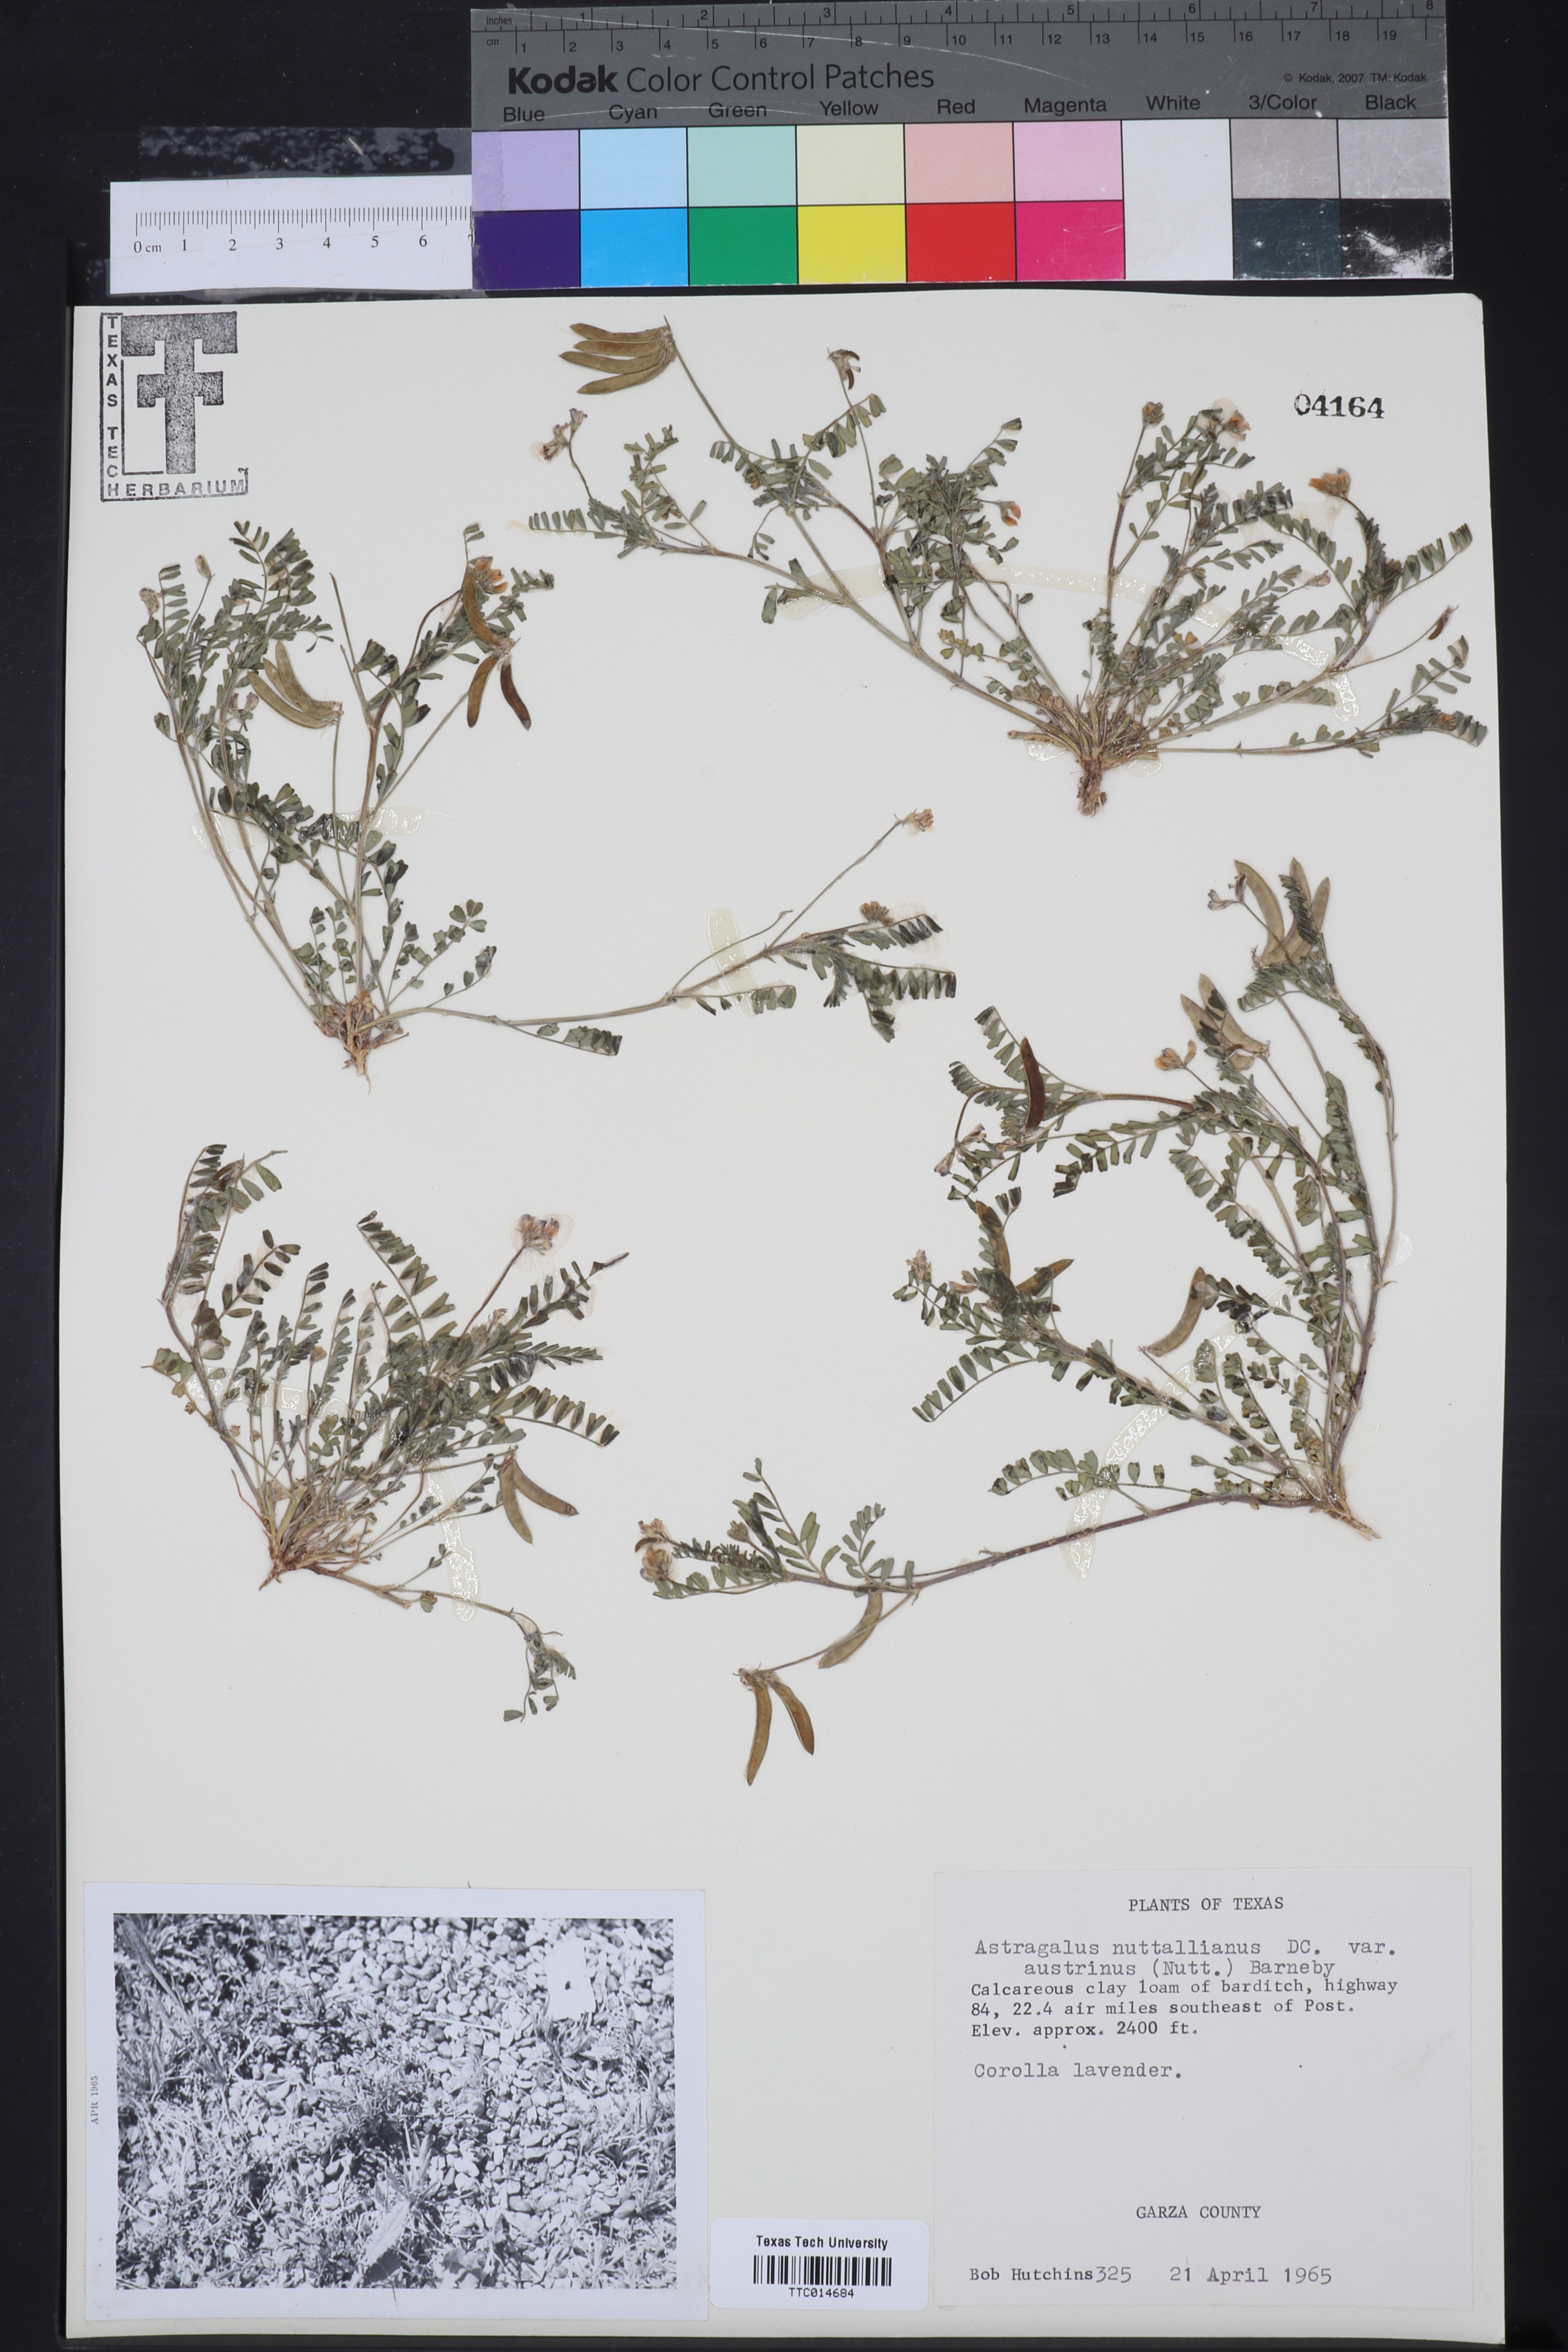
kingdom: Plantae
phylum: Tracheophyta
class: Magnoliopsida
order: Fabales
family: Fabaceae
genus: Astragalus
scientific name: Astragalus nuttallianus
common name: Smallflowered milkvetch
